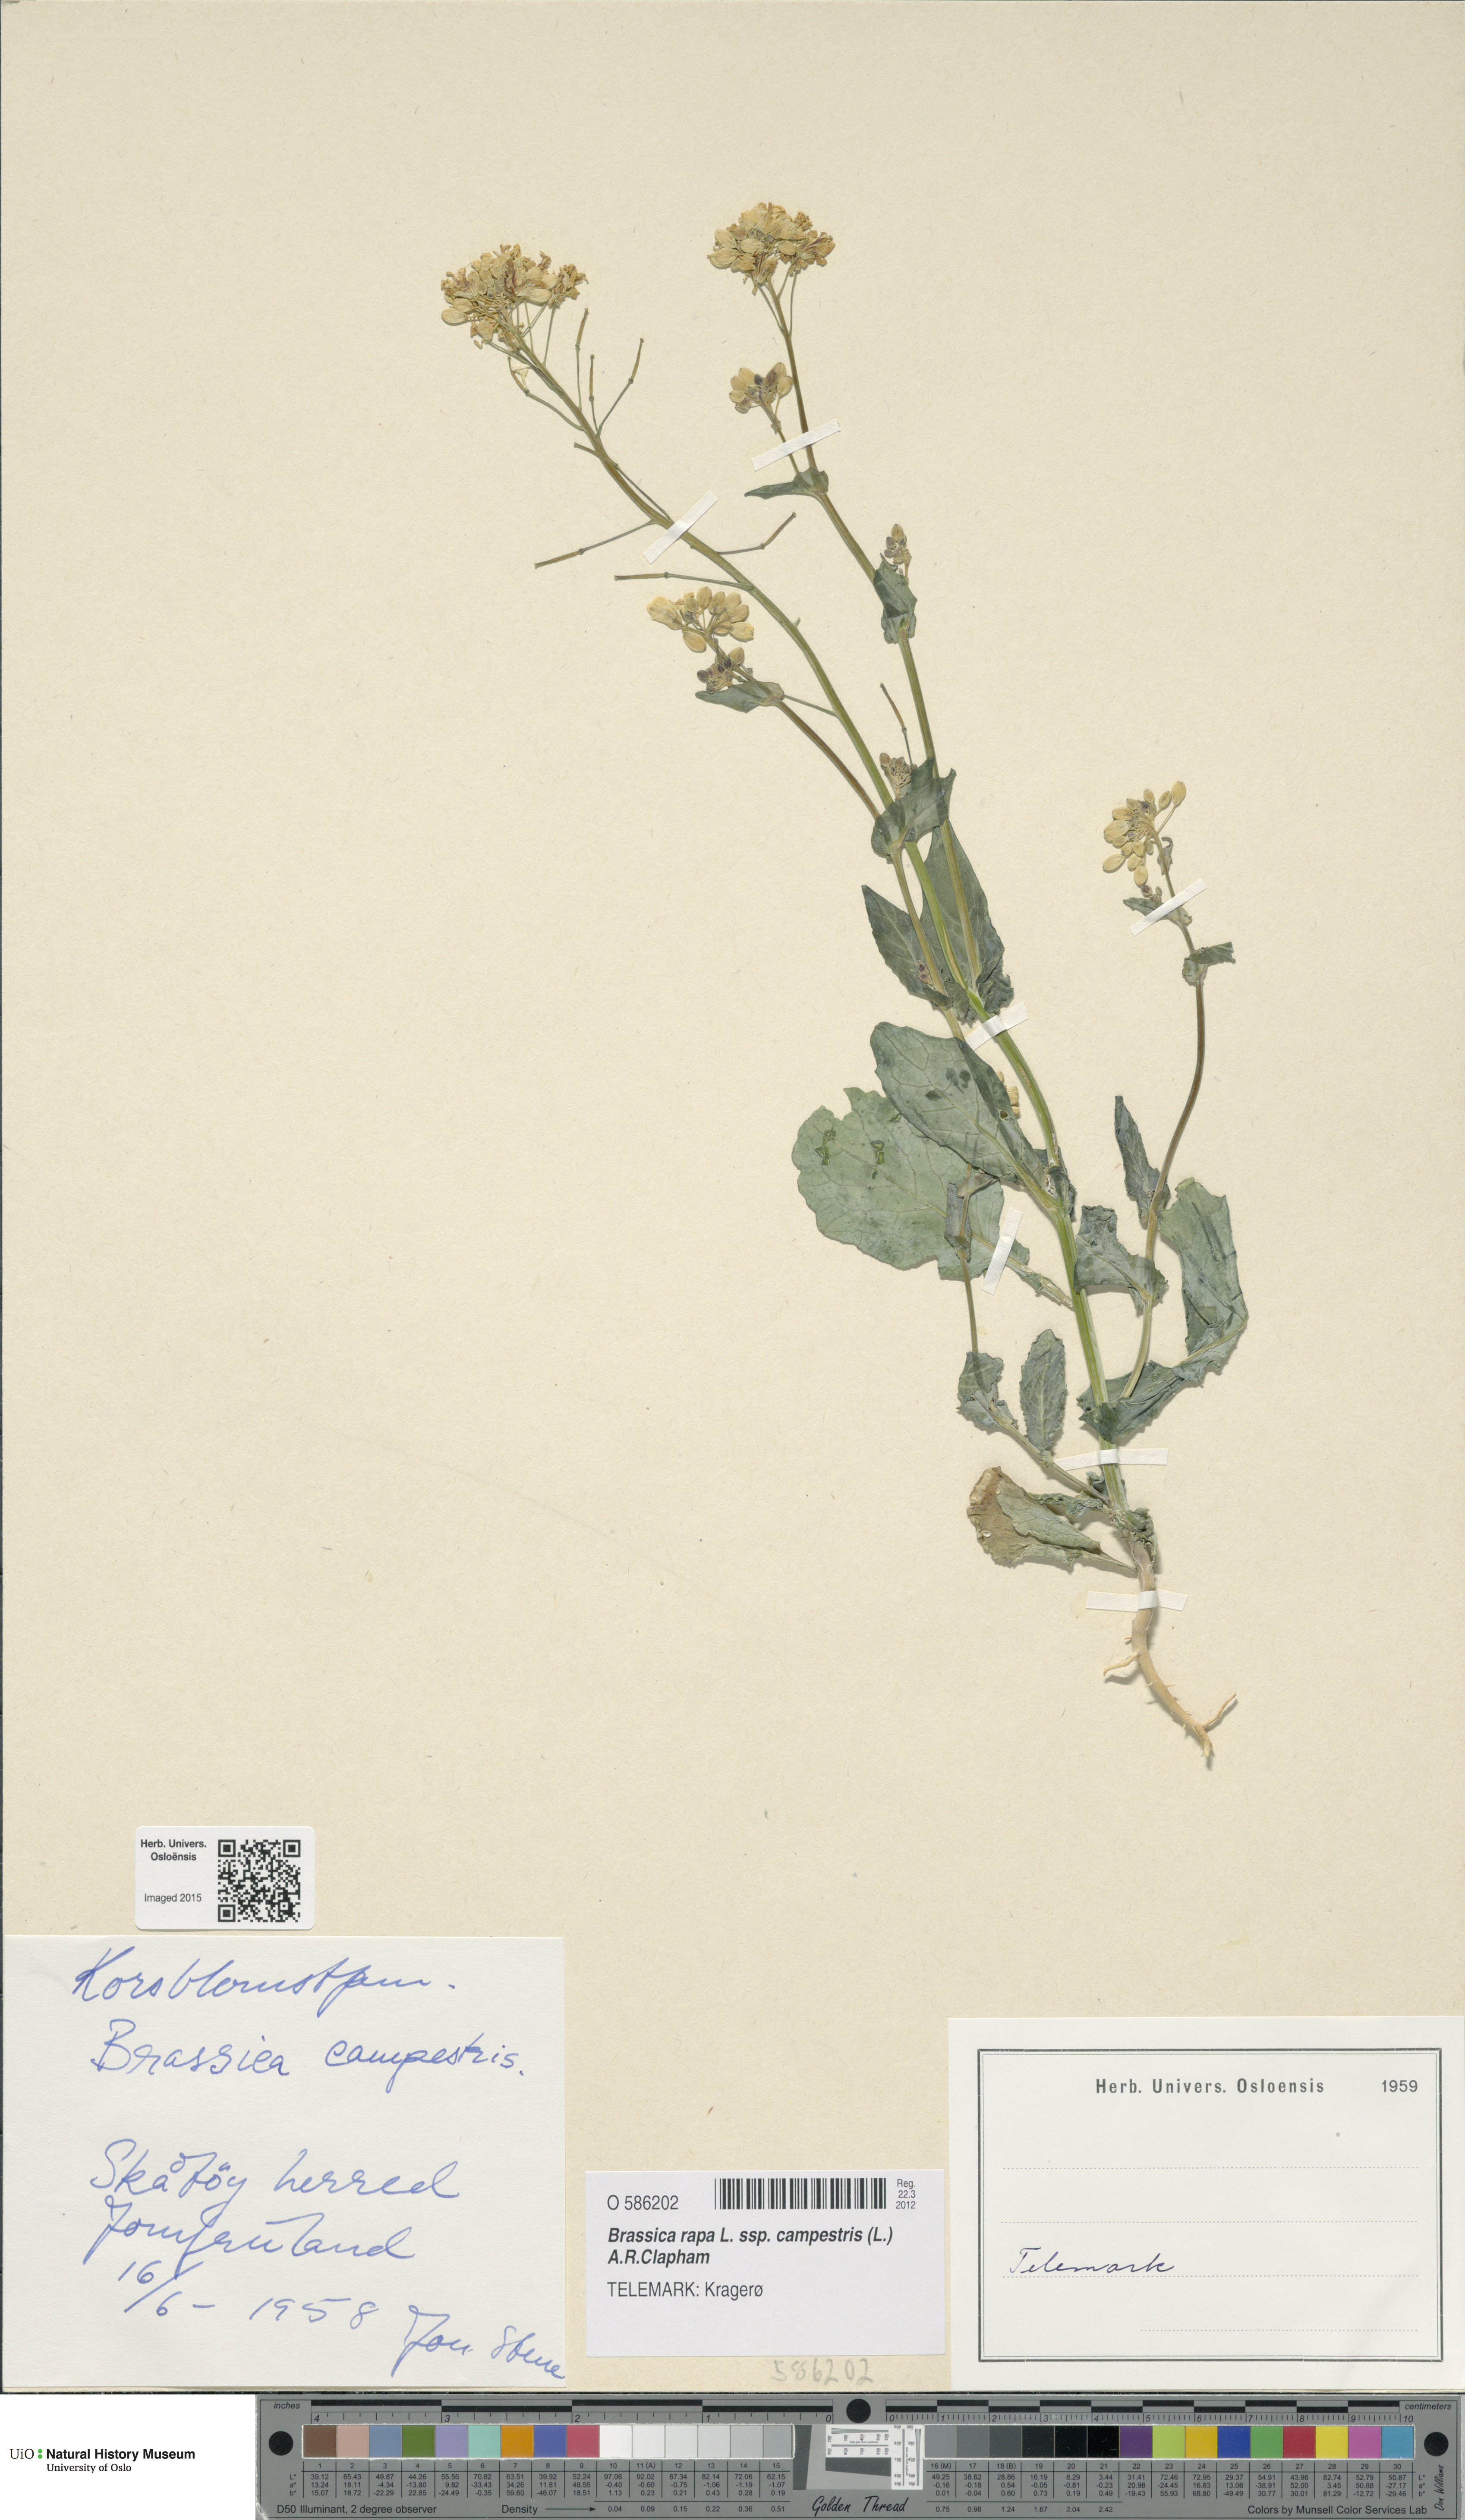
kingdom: Plantae
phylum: Tracheophyta
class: Magnoliopsida
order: Brassicales
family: Brassicaceae
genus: Brassica
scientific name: Brassica rapa
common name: Field mustard
